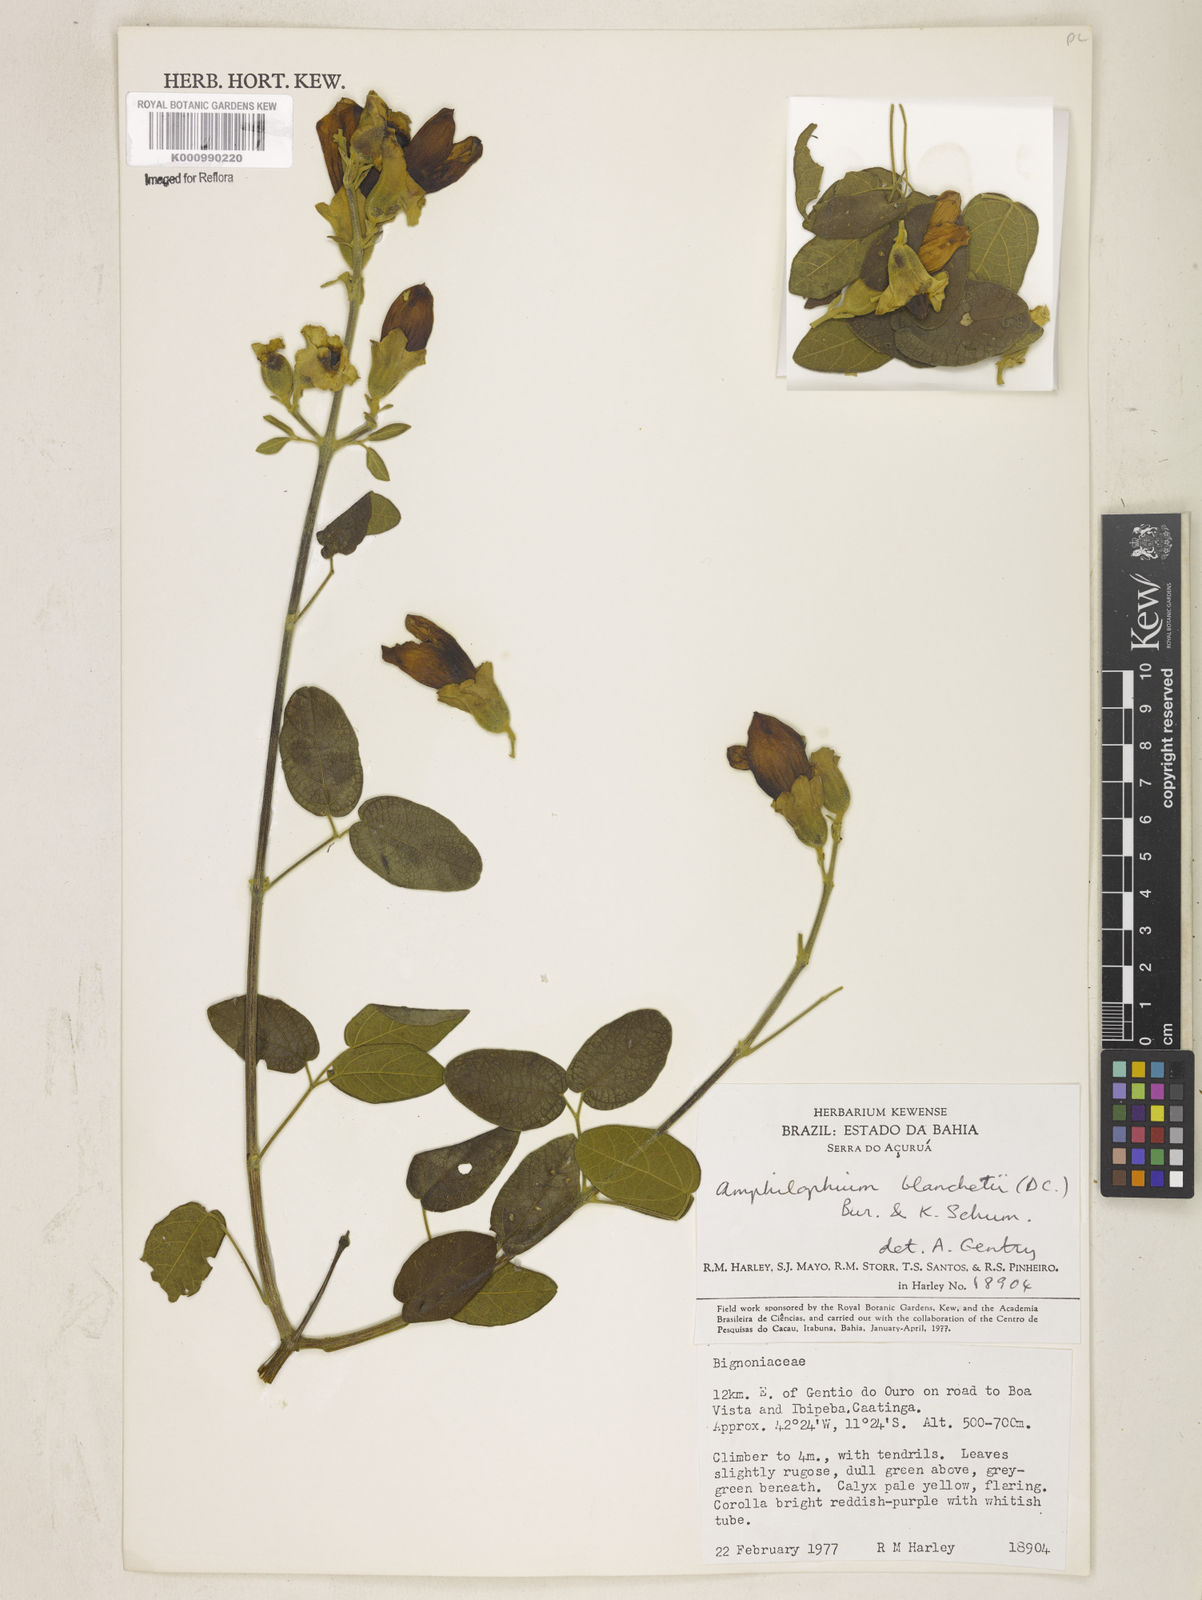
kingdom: Plantae
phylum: Tracheophyta
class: Magnoliopsida
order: Lamiales
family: Bignoniaceae
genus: Amphilophium
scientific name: Amphilophium blanchetii
